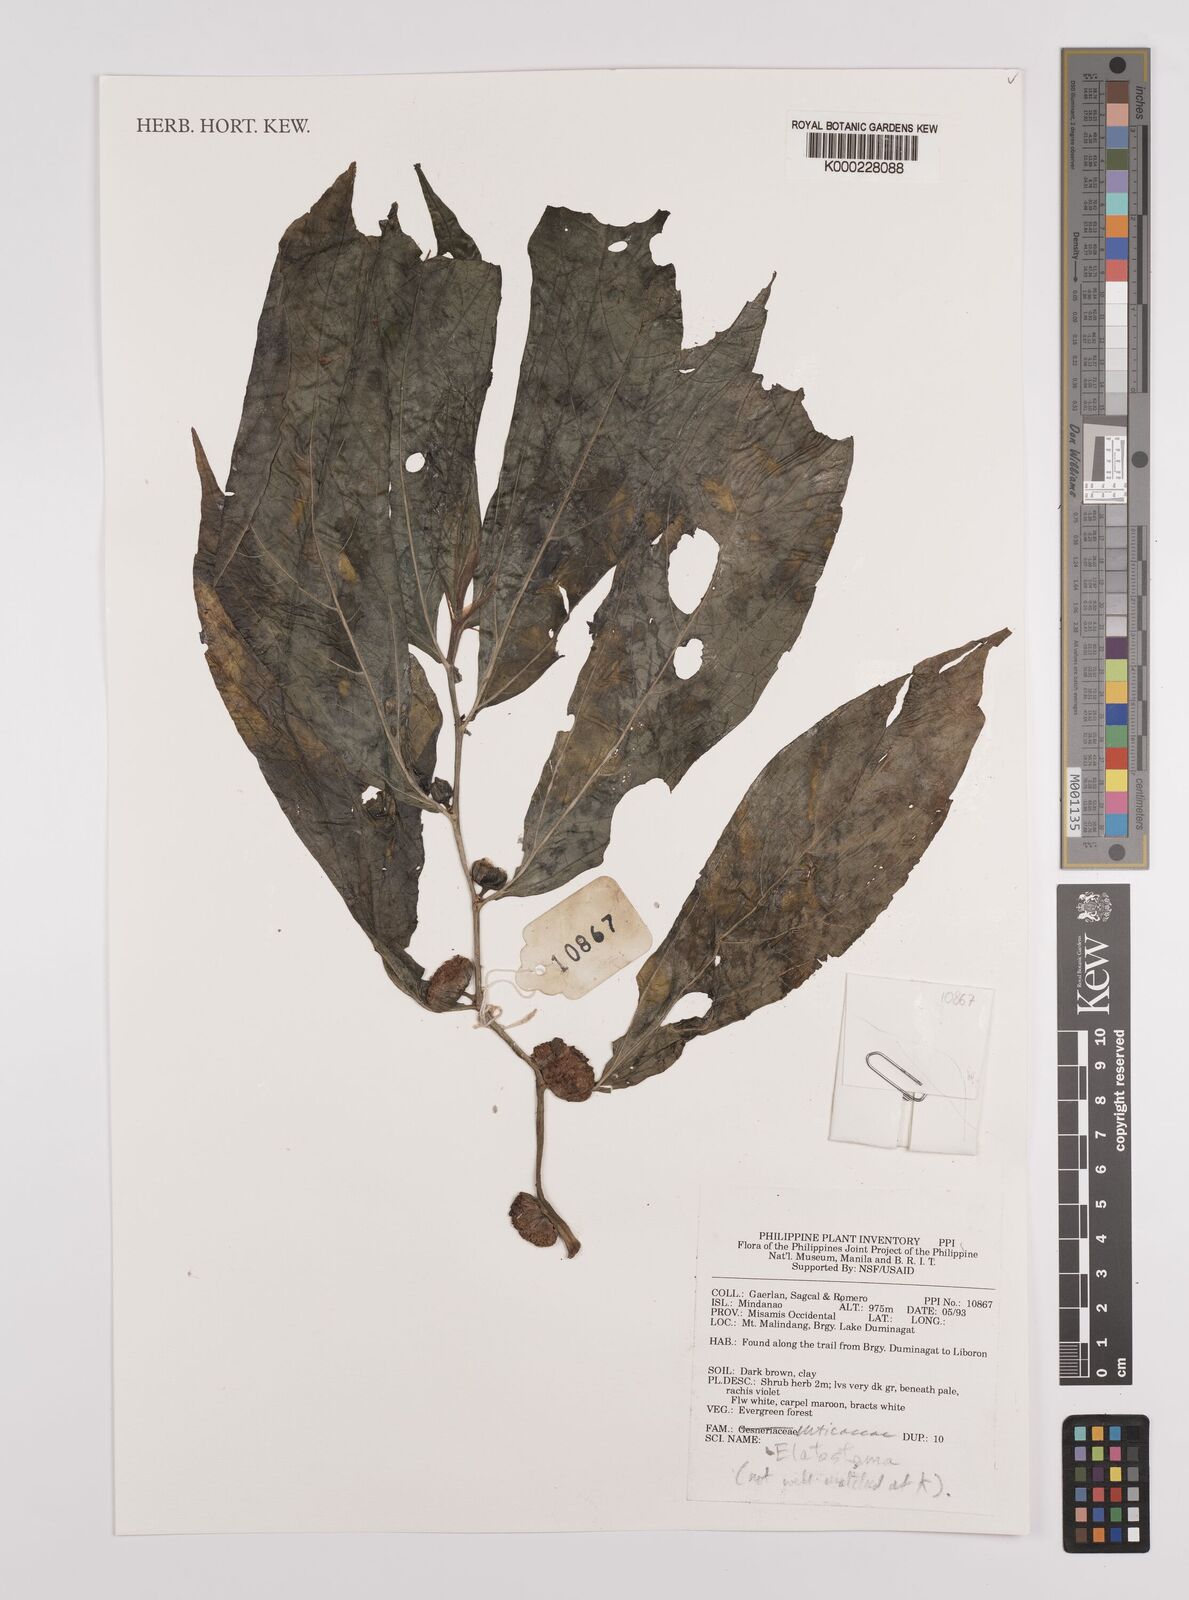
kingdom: Plantae
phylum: Tracheophyta
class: Magnoliopsida
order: Rosales
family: Urticaceae
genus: Elatostema
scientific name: Elatostema
